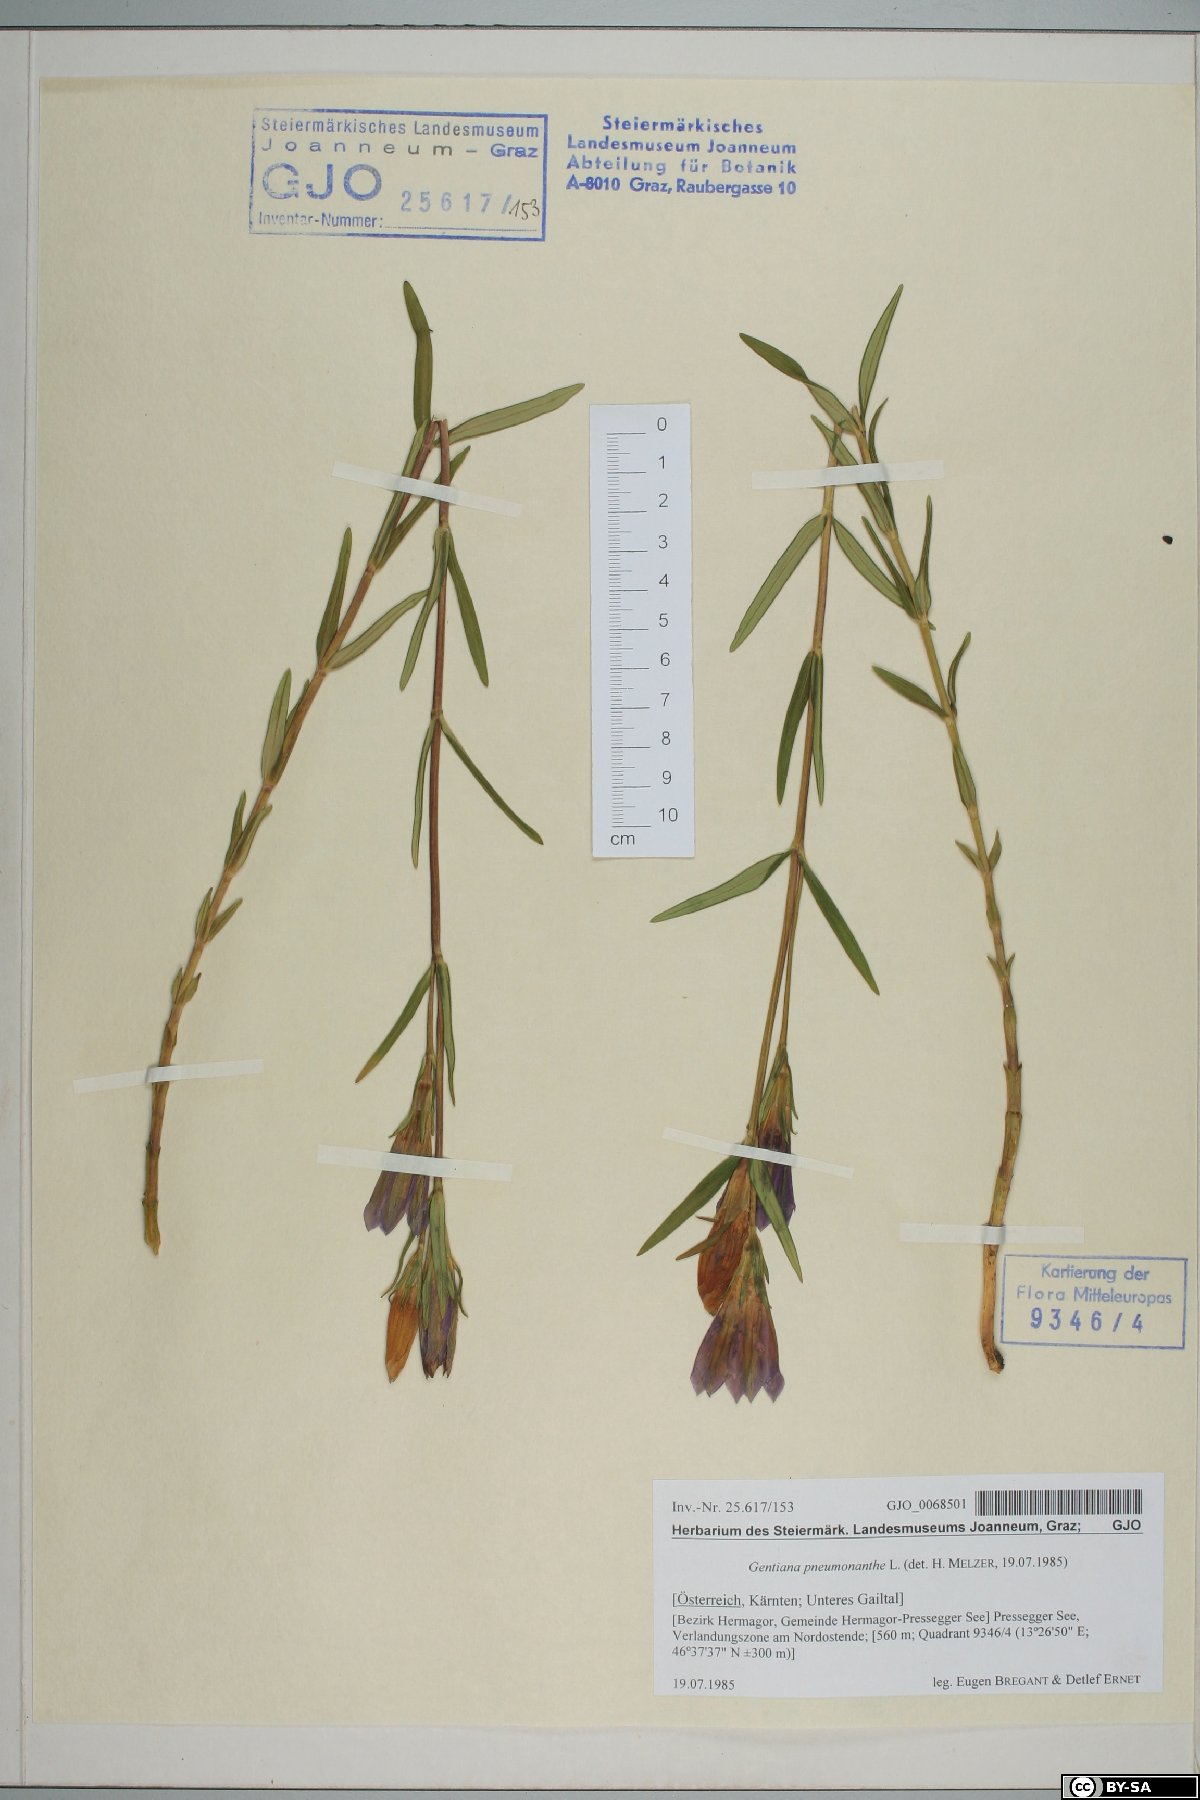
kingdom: Plantae
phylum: Tracheophyta
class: Magnoliopsida
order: Gentianales
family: Gentianaceae
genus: Gentiana
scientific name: Gentiana pneumonanthe
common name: Marsh gentian
